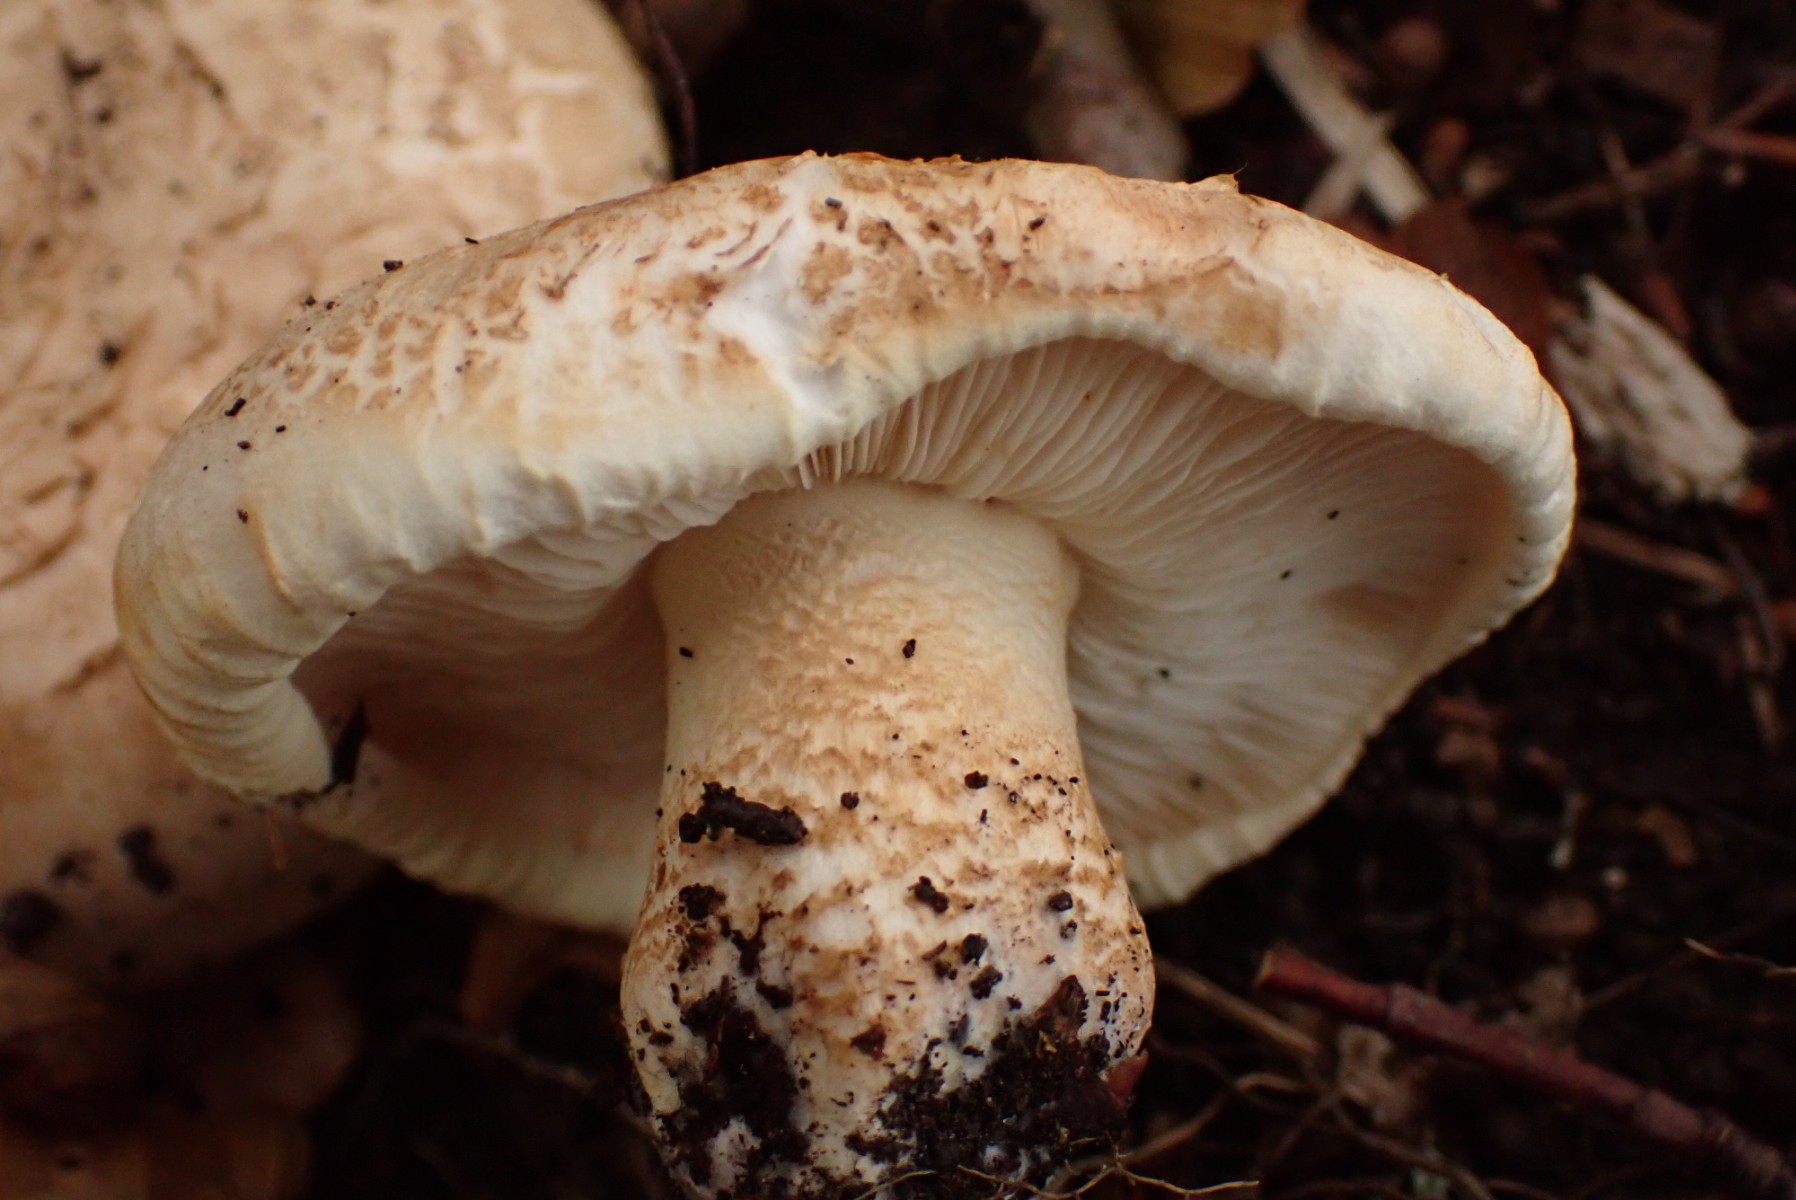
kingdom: Fungi
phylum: Basidiomycota
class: Agaricomycetes
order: Agaricales
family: Tricholomataceae
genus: Tricholoma
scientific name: Tricholoma acerbum
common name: stor ridderhat
